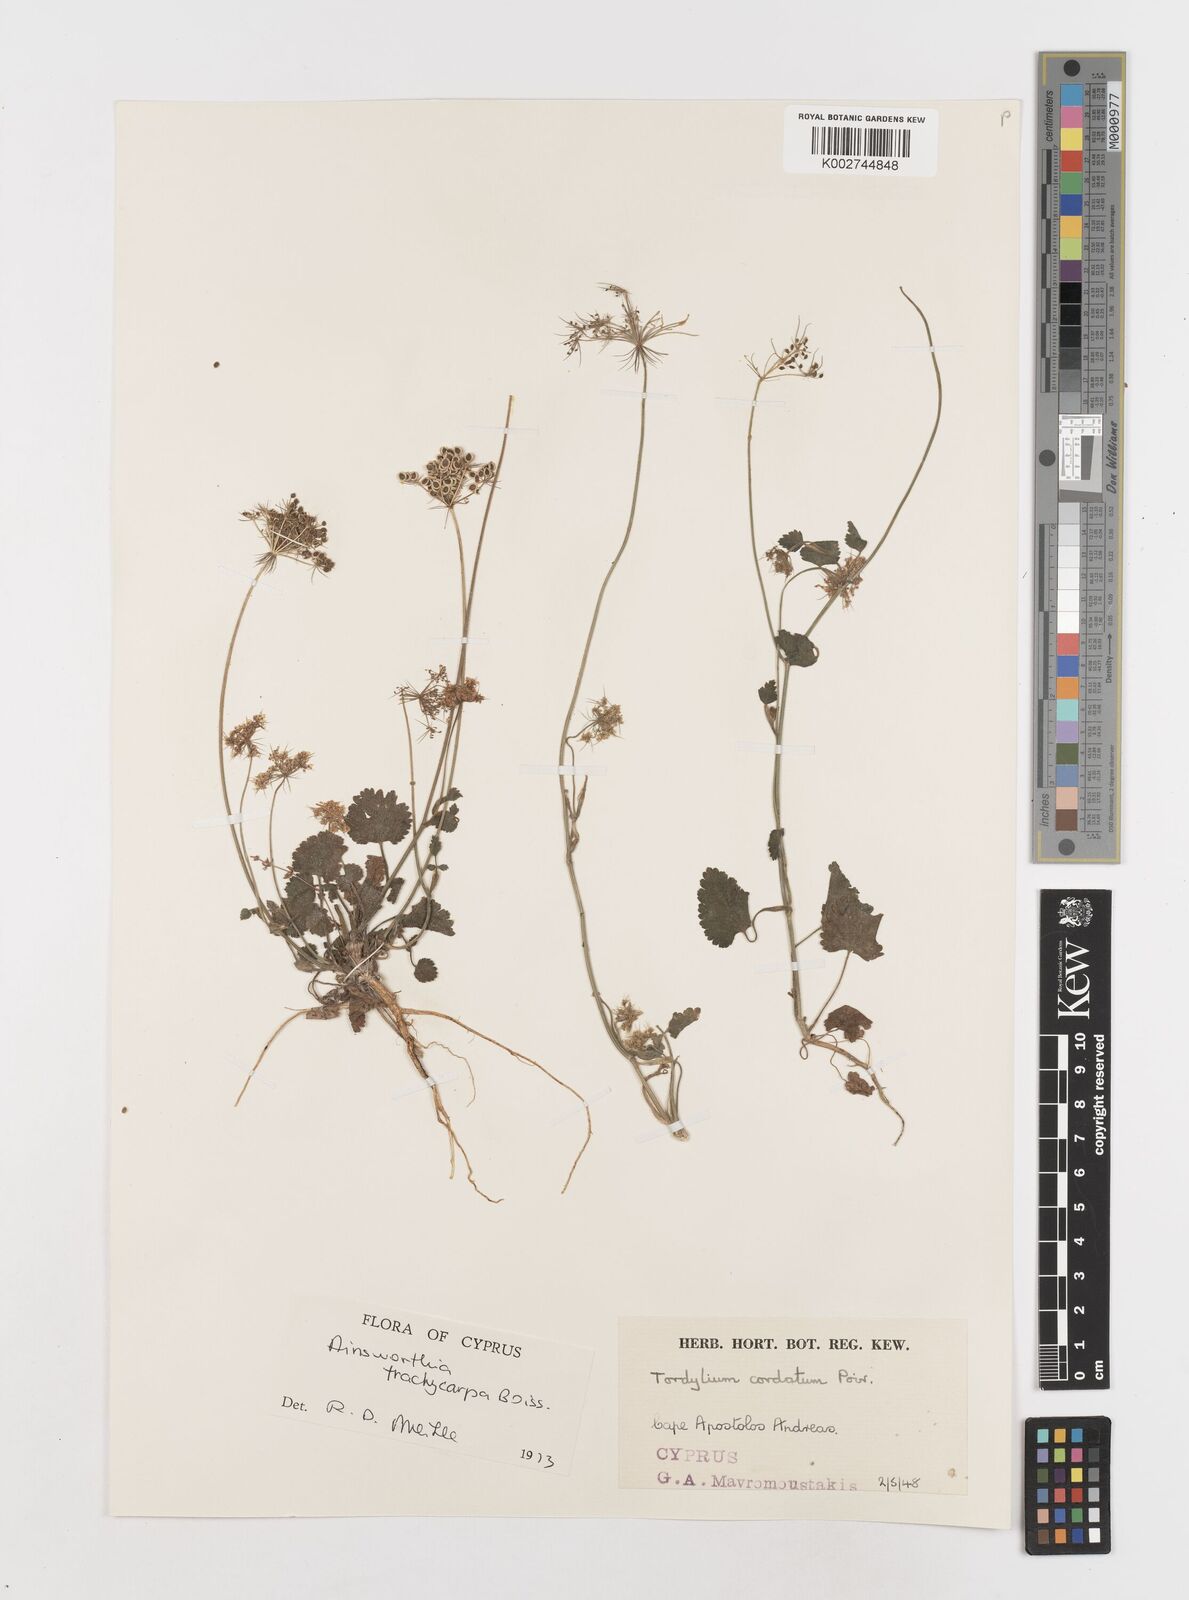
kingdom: Plantae
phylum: Tracheophyta
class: Magnoliopsida
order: Apiales
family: Apiaceae
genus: Ainsworthia
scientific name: Ainsworthia trachycarpa
